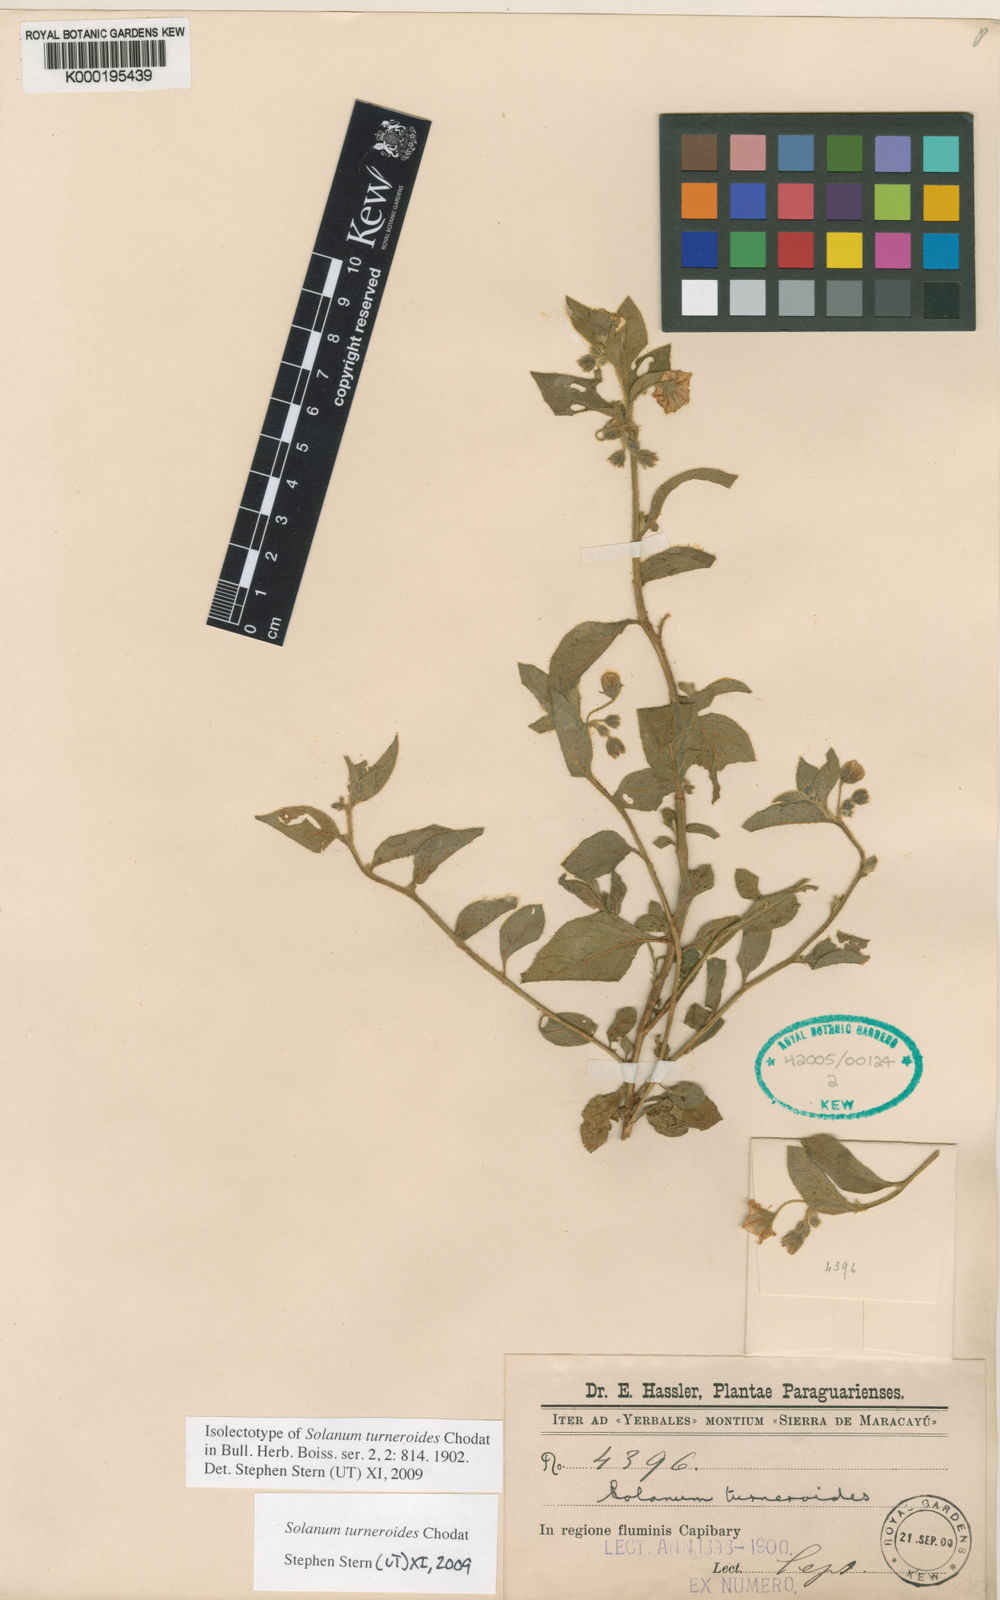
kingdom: Plantae
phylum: Tracheophyta
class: Magnoliopsida
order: Solanales
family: Solanaceae
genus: Solanum
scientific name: Solanum turneroides
